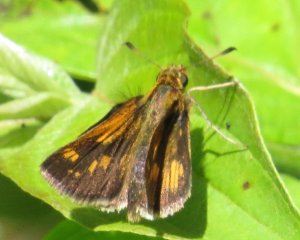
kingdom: Animalia
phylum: Arthropoda
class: Insecta
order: Lepidoptera
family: Hesperiidae
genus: Polites
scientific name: Polites coras
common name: Peck's Skipper
